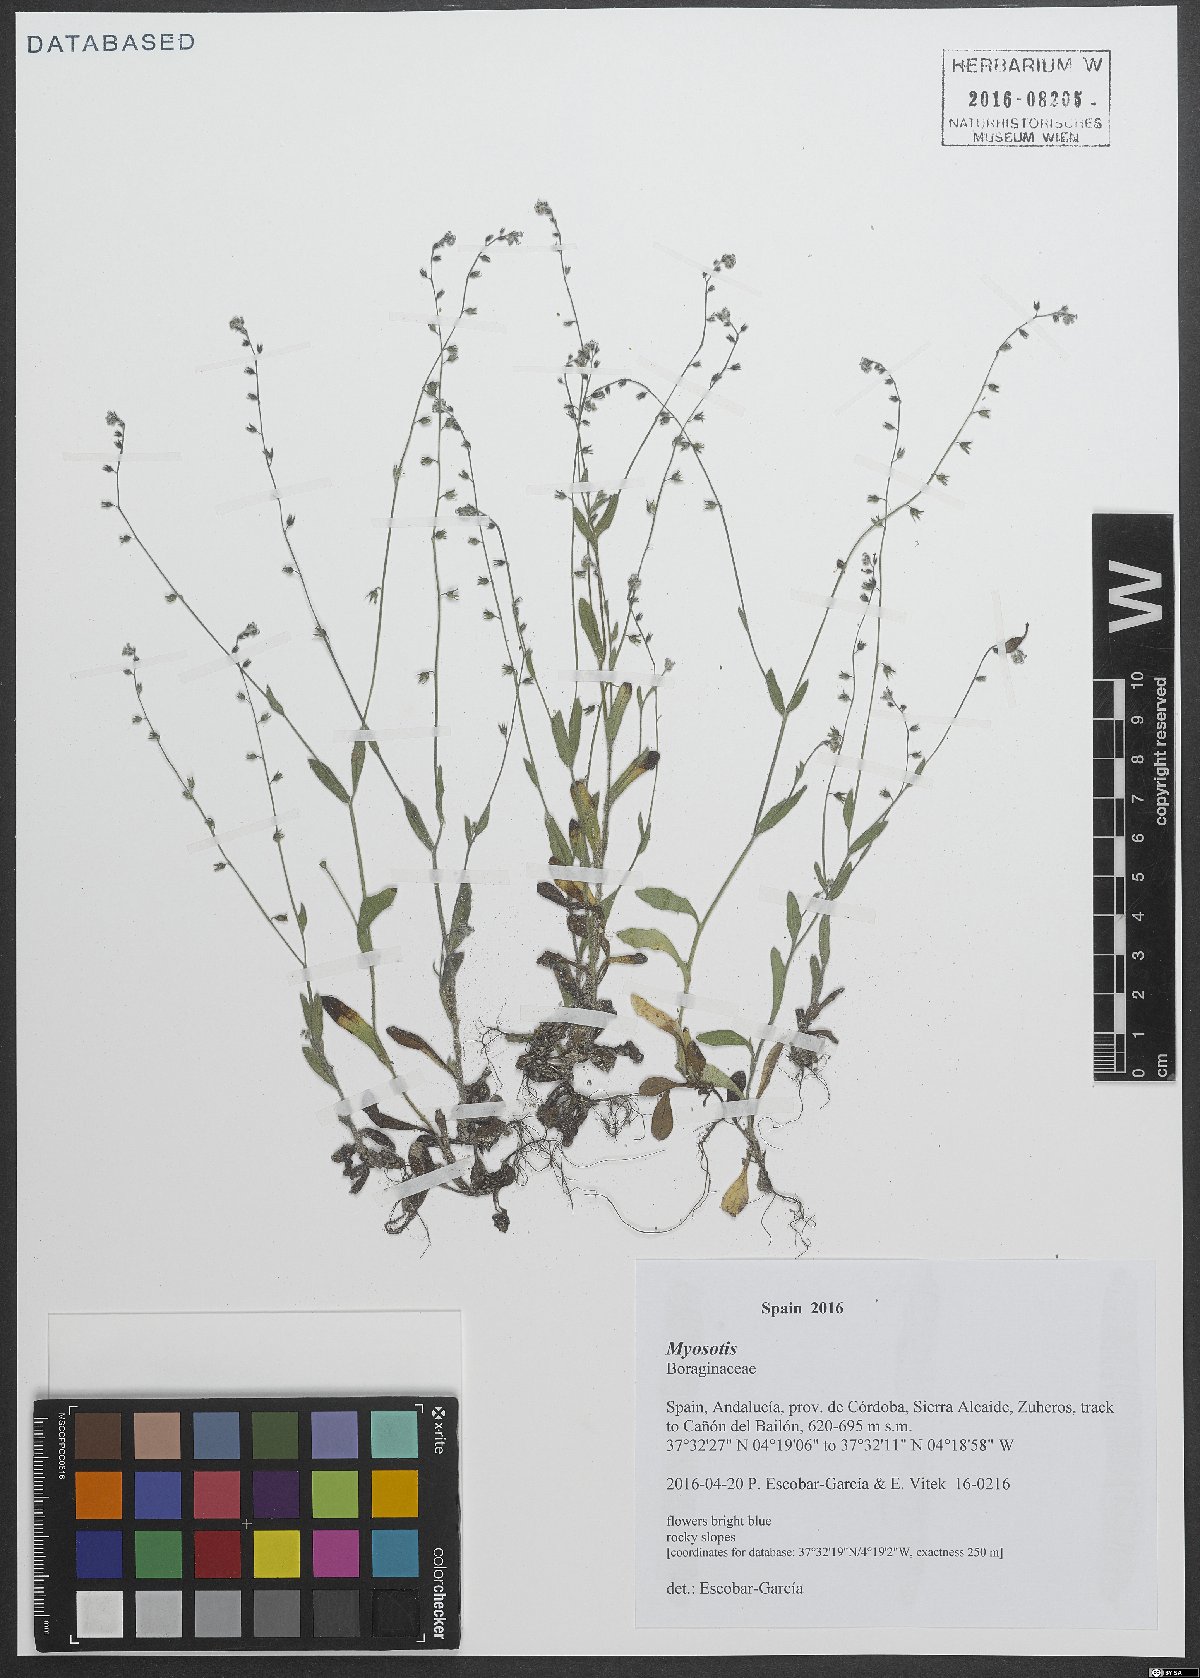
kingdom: Plantae
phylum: Tracheophyta
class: Magnoliopsida
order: Boraginales
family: Boraginaceae
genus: Myosotis
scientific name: Myosotis
